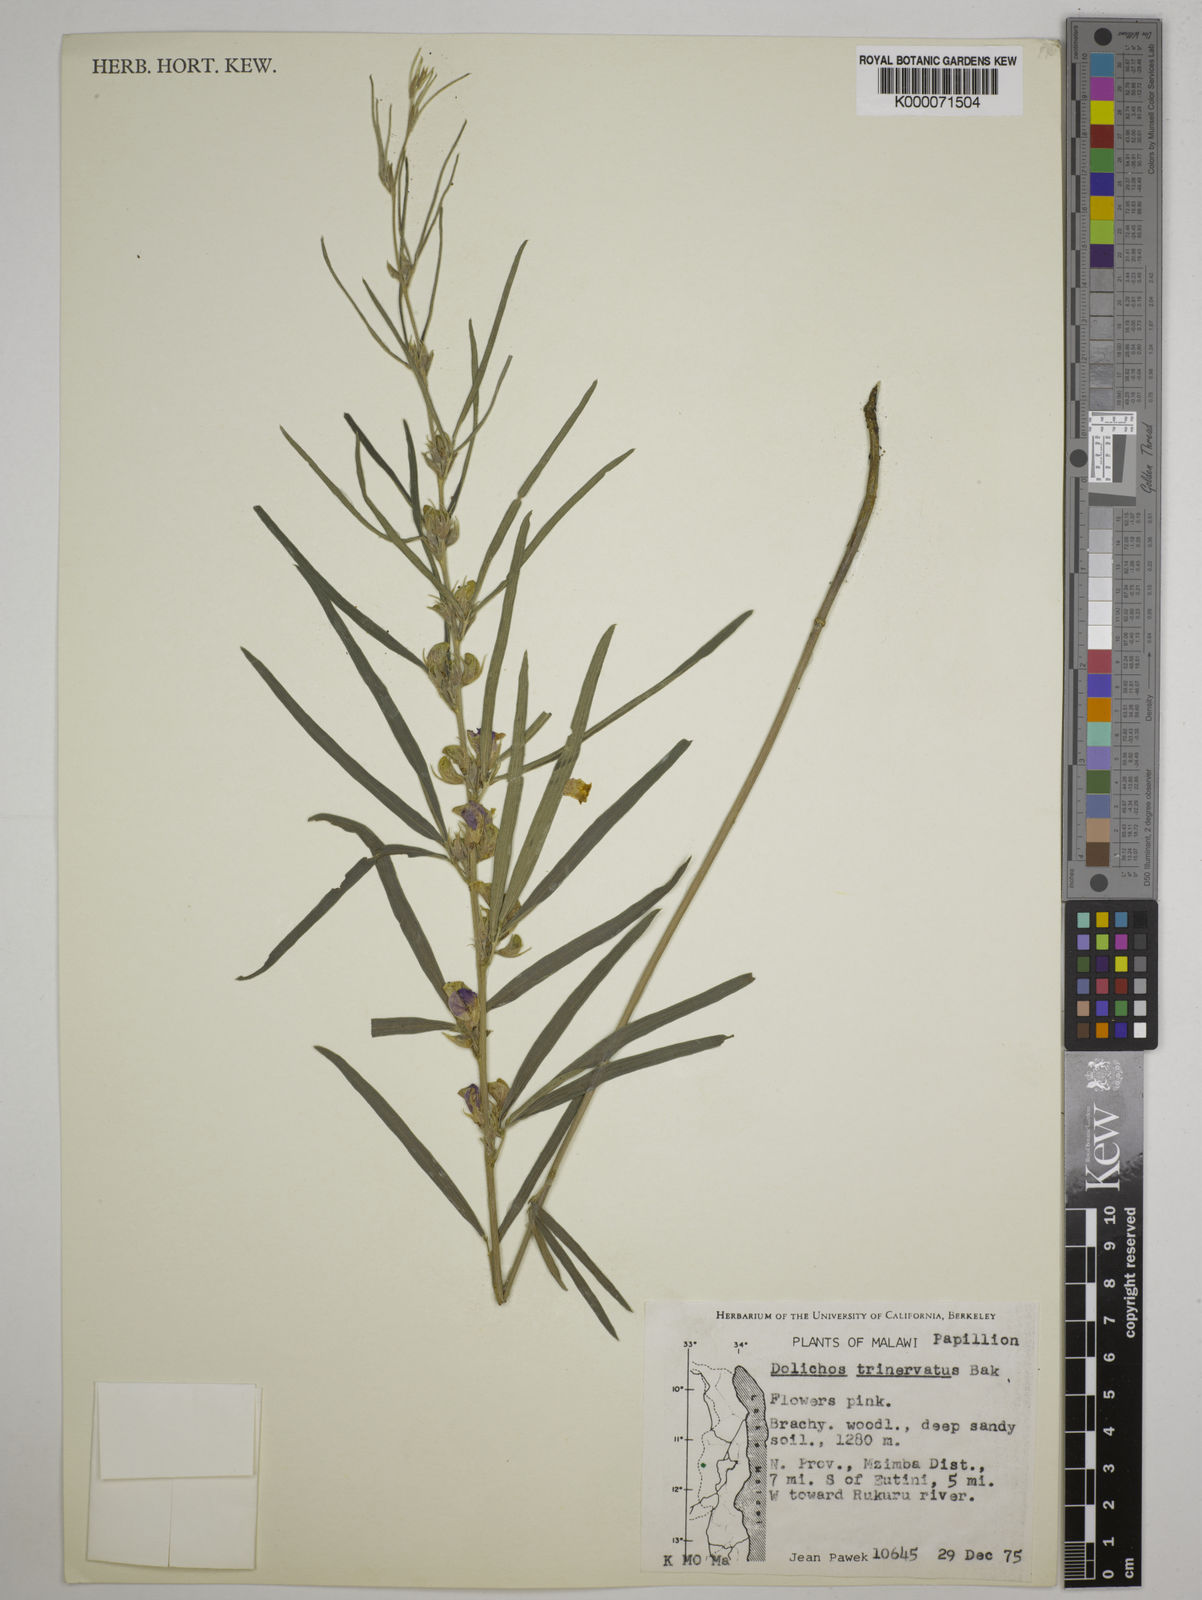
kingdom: Plantae
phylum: Tracheophyta
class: Magnoliopsida
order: Fabales
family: Fabaceae
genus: Dolichos
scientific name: Dolichos trinervatus
